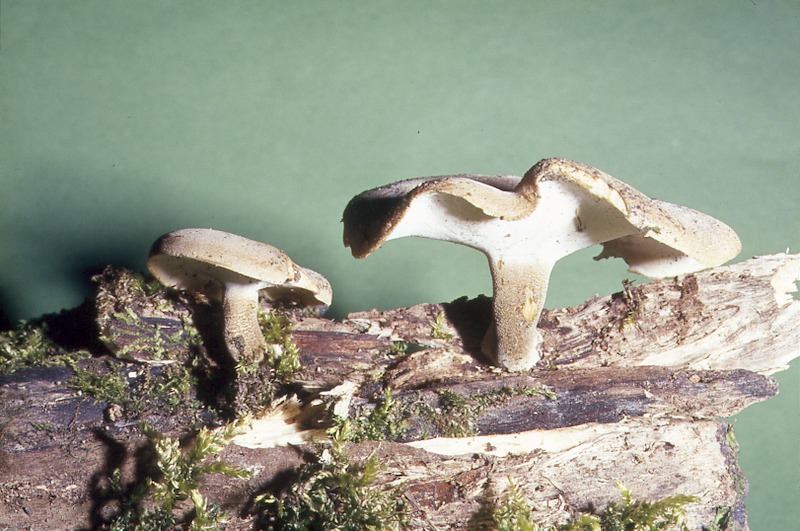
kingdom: Fungi
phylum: Basidiomycota
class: Agaricomycetes
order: Polyporales
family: Polyporaceae
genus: Lentinus
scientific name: Lentinus substrictus
